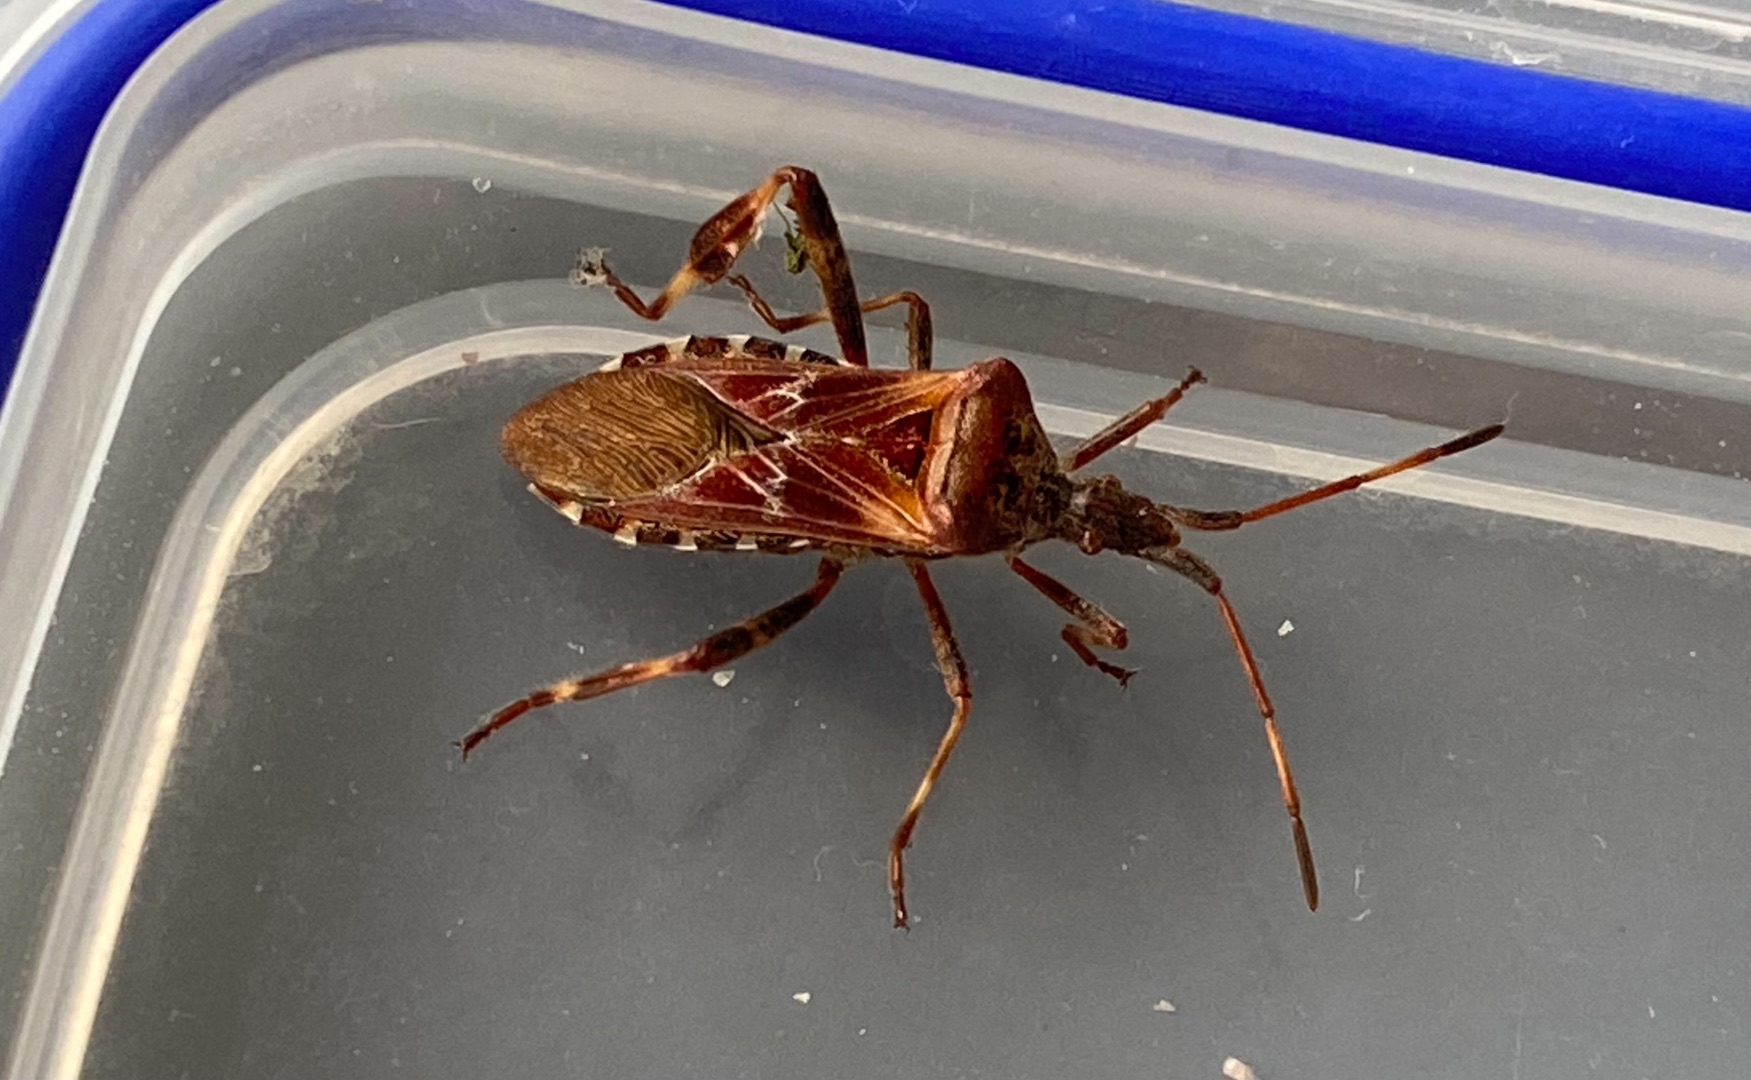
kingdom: Animalia
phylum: Arthropoda
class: Insecta
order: Hemiptera
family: Coreidae
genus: Leptoglossus
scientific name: Leptoglossus occidentalis
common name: Amerikansk fyrretæge
